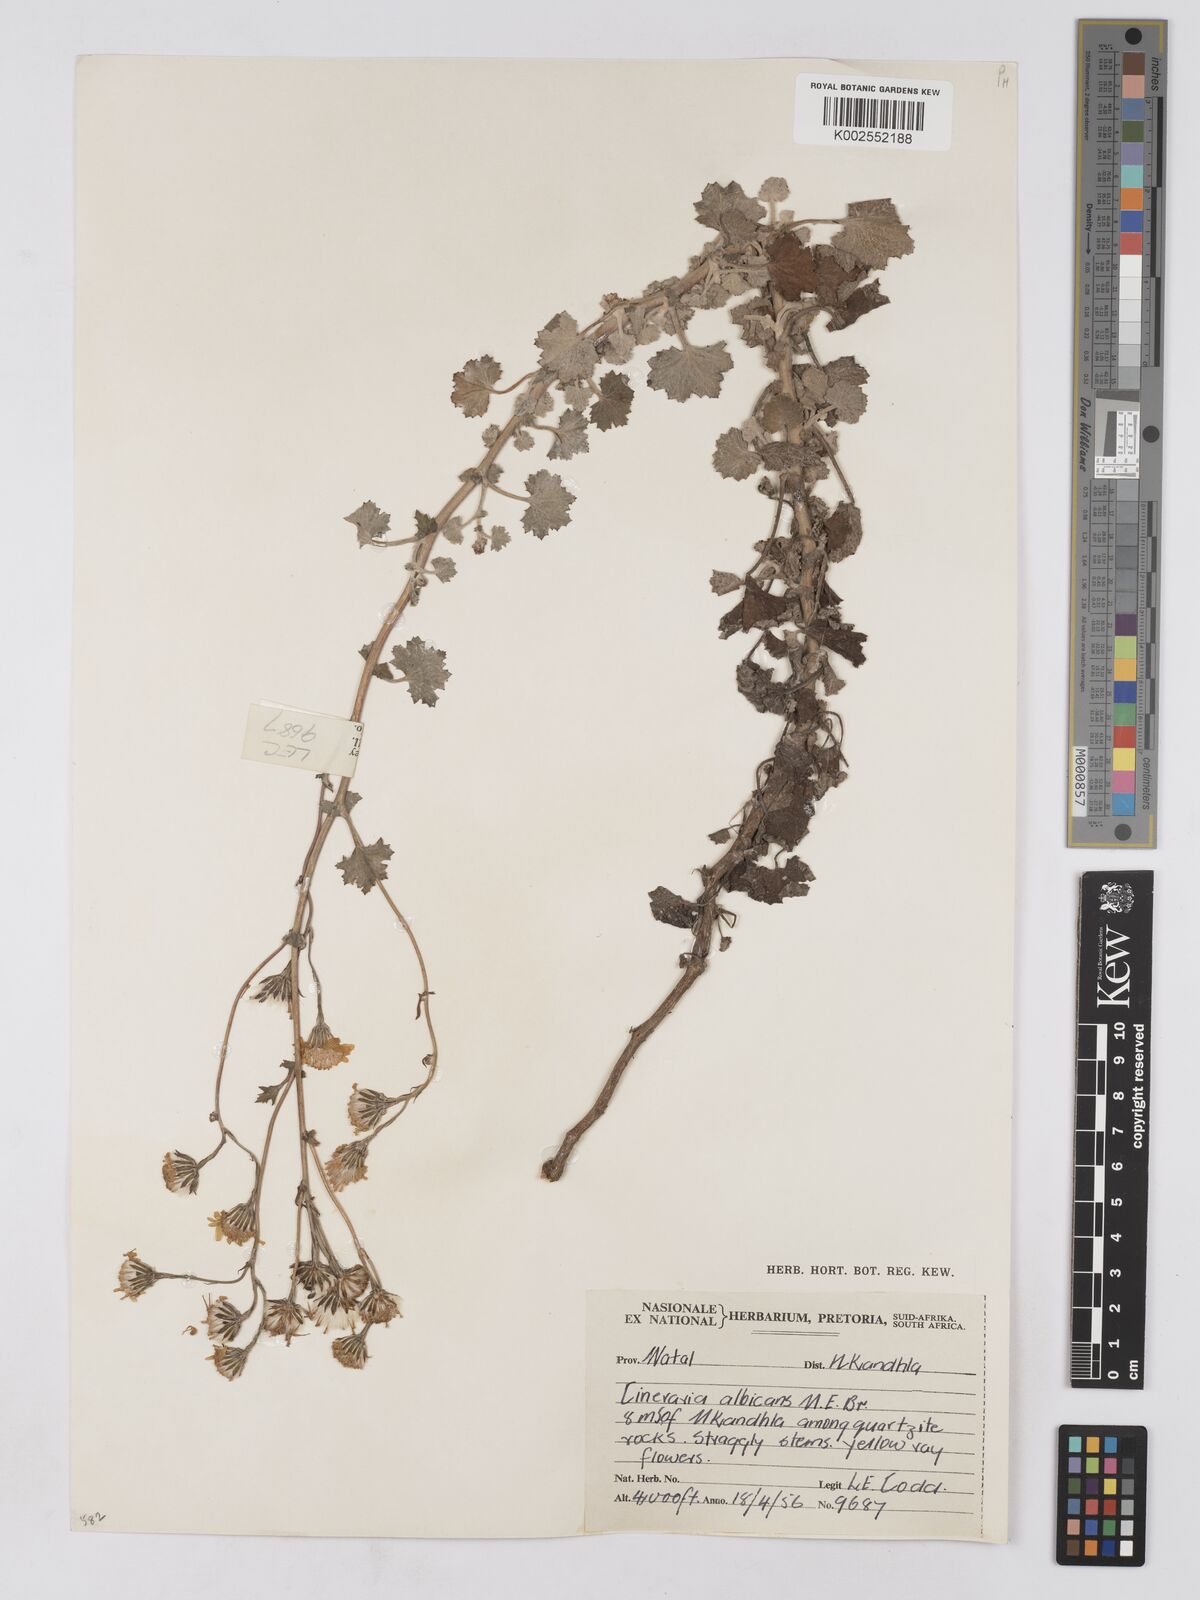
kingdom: Plantae
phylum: Tracheophyta
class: Magnoliopsida
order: Asterales
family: Asteraceae
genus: Cineraria
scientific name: Cineraria albicans
